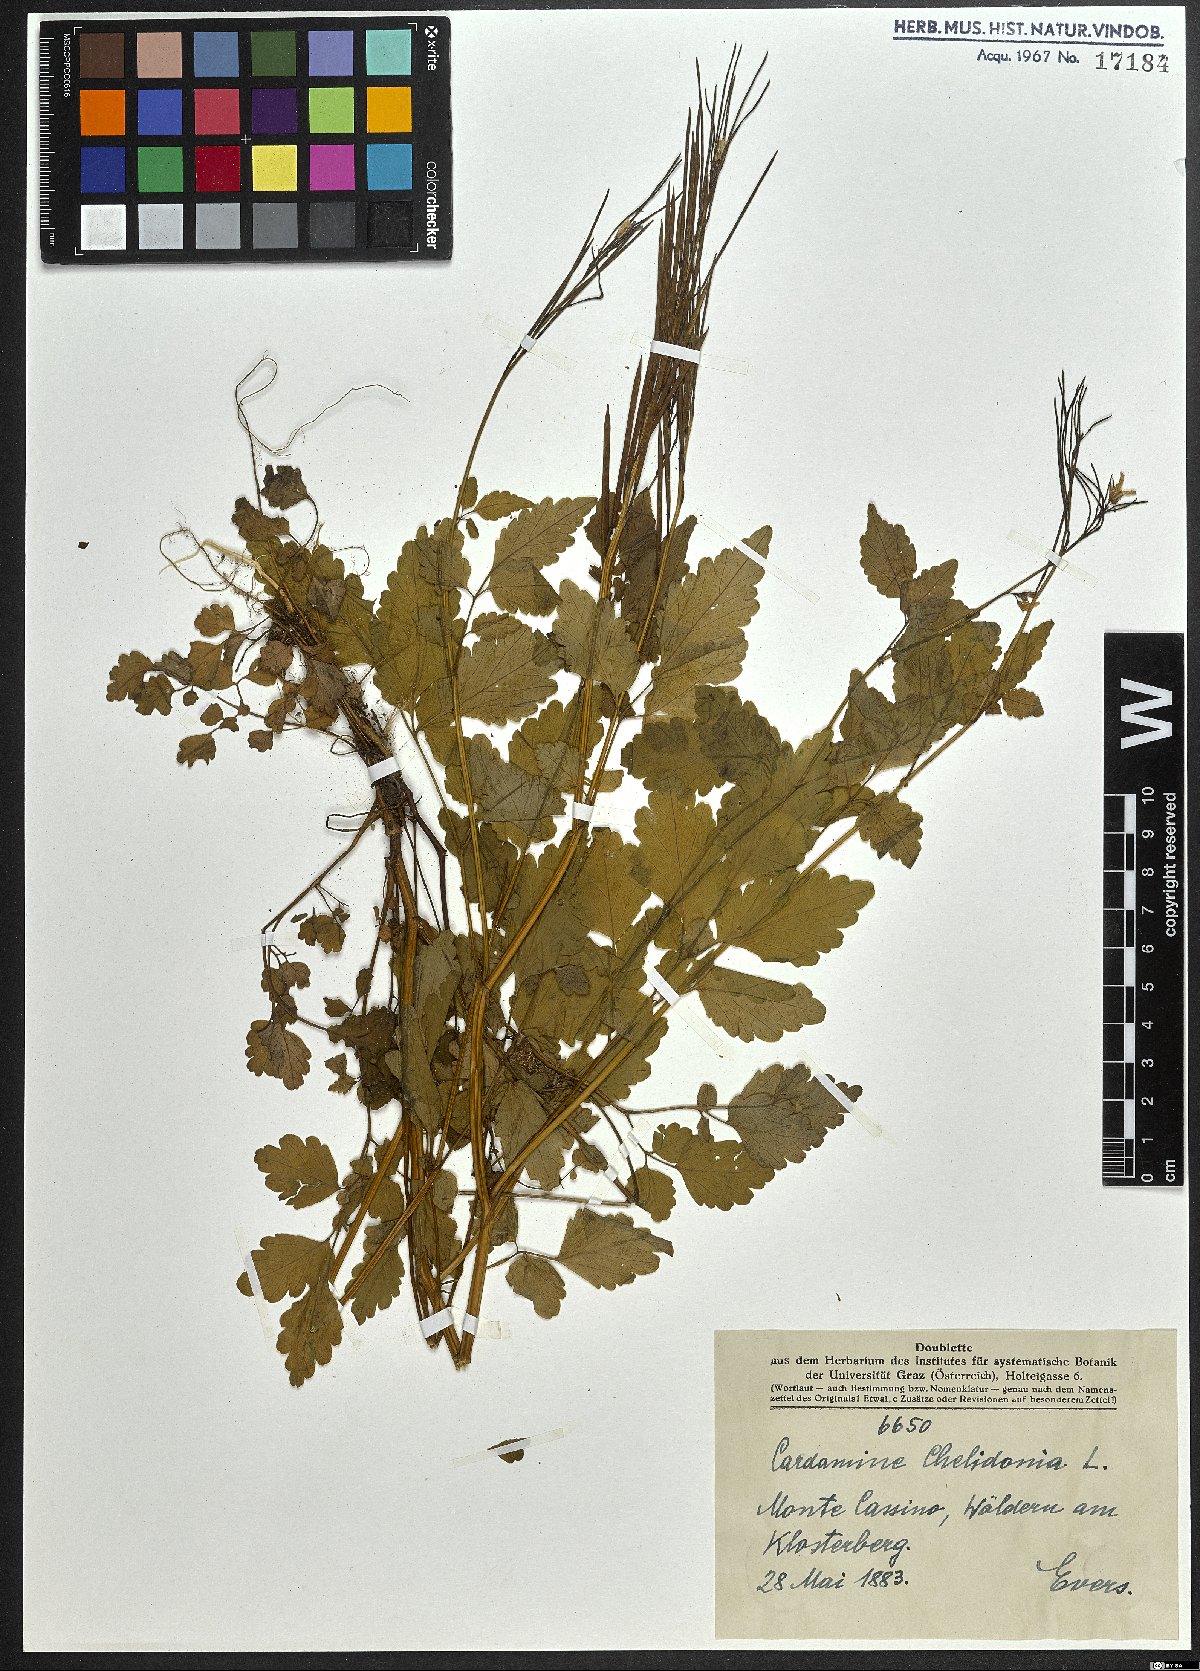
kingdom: Plantae
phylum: Tracheophyta
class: Magnoliopsida
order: Brassicales
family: Brassicaceae
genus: Cardamine
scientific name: Cardamine chelidonia
